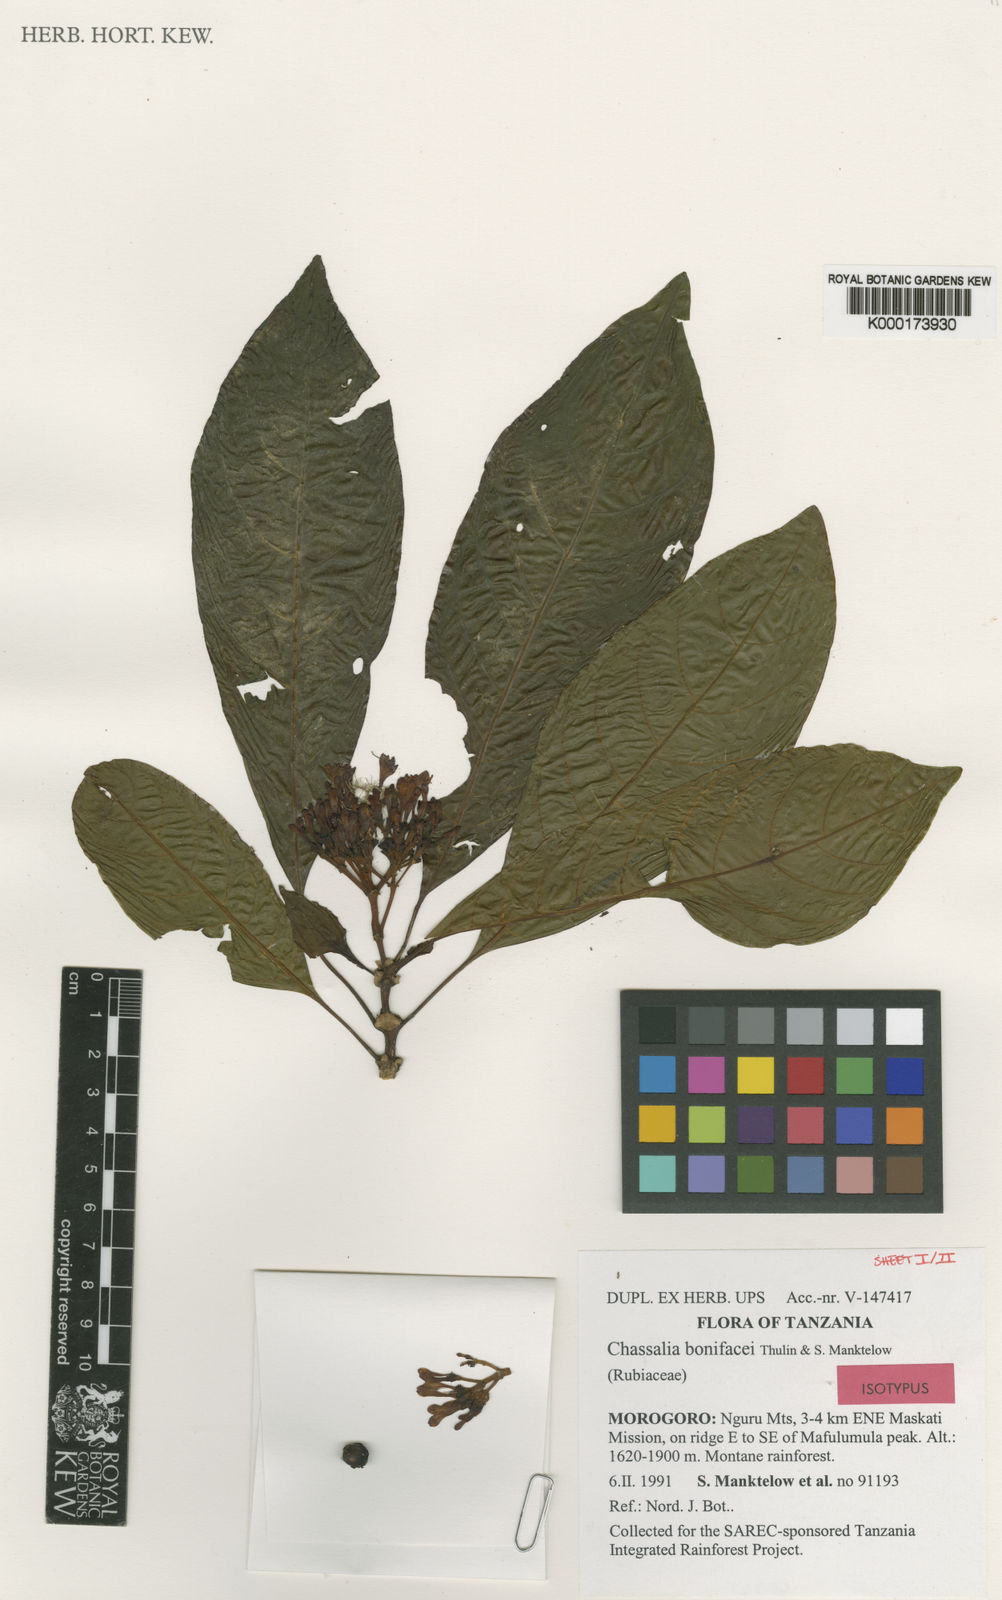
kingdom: Plantae
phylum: Tracheophyta
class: Magnoliopsida
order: Gentianales
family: Rubiaceae
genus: Chassalia
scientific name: Chassalia bonifacei
